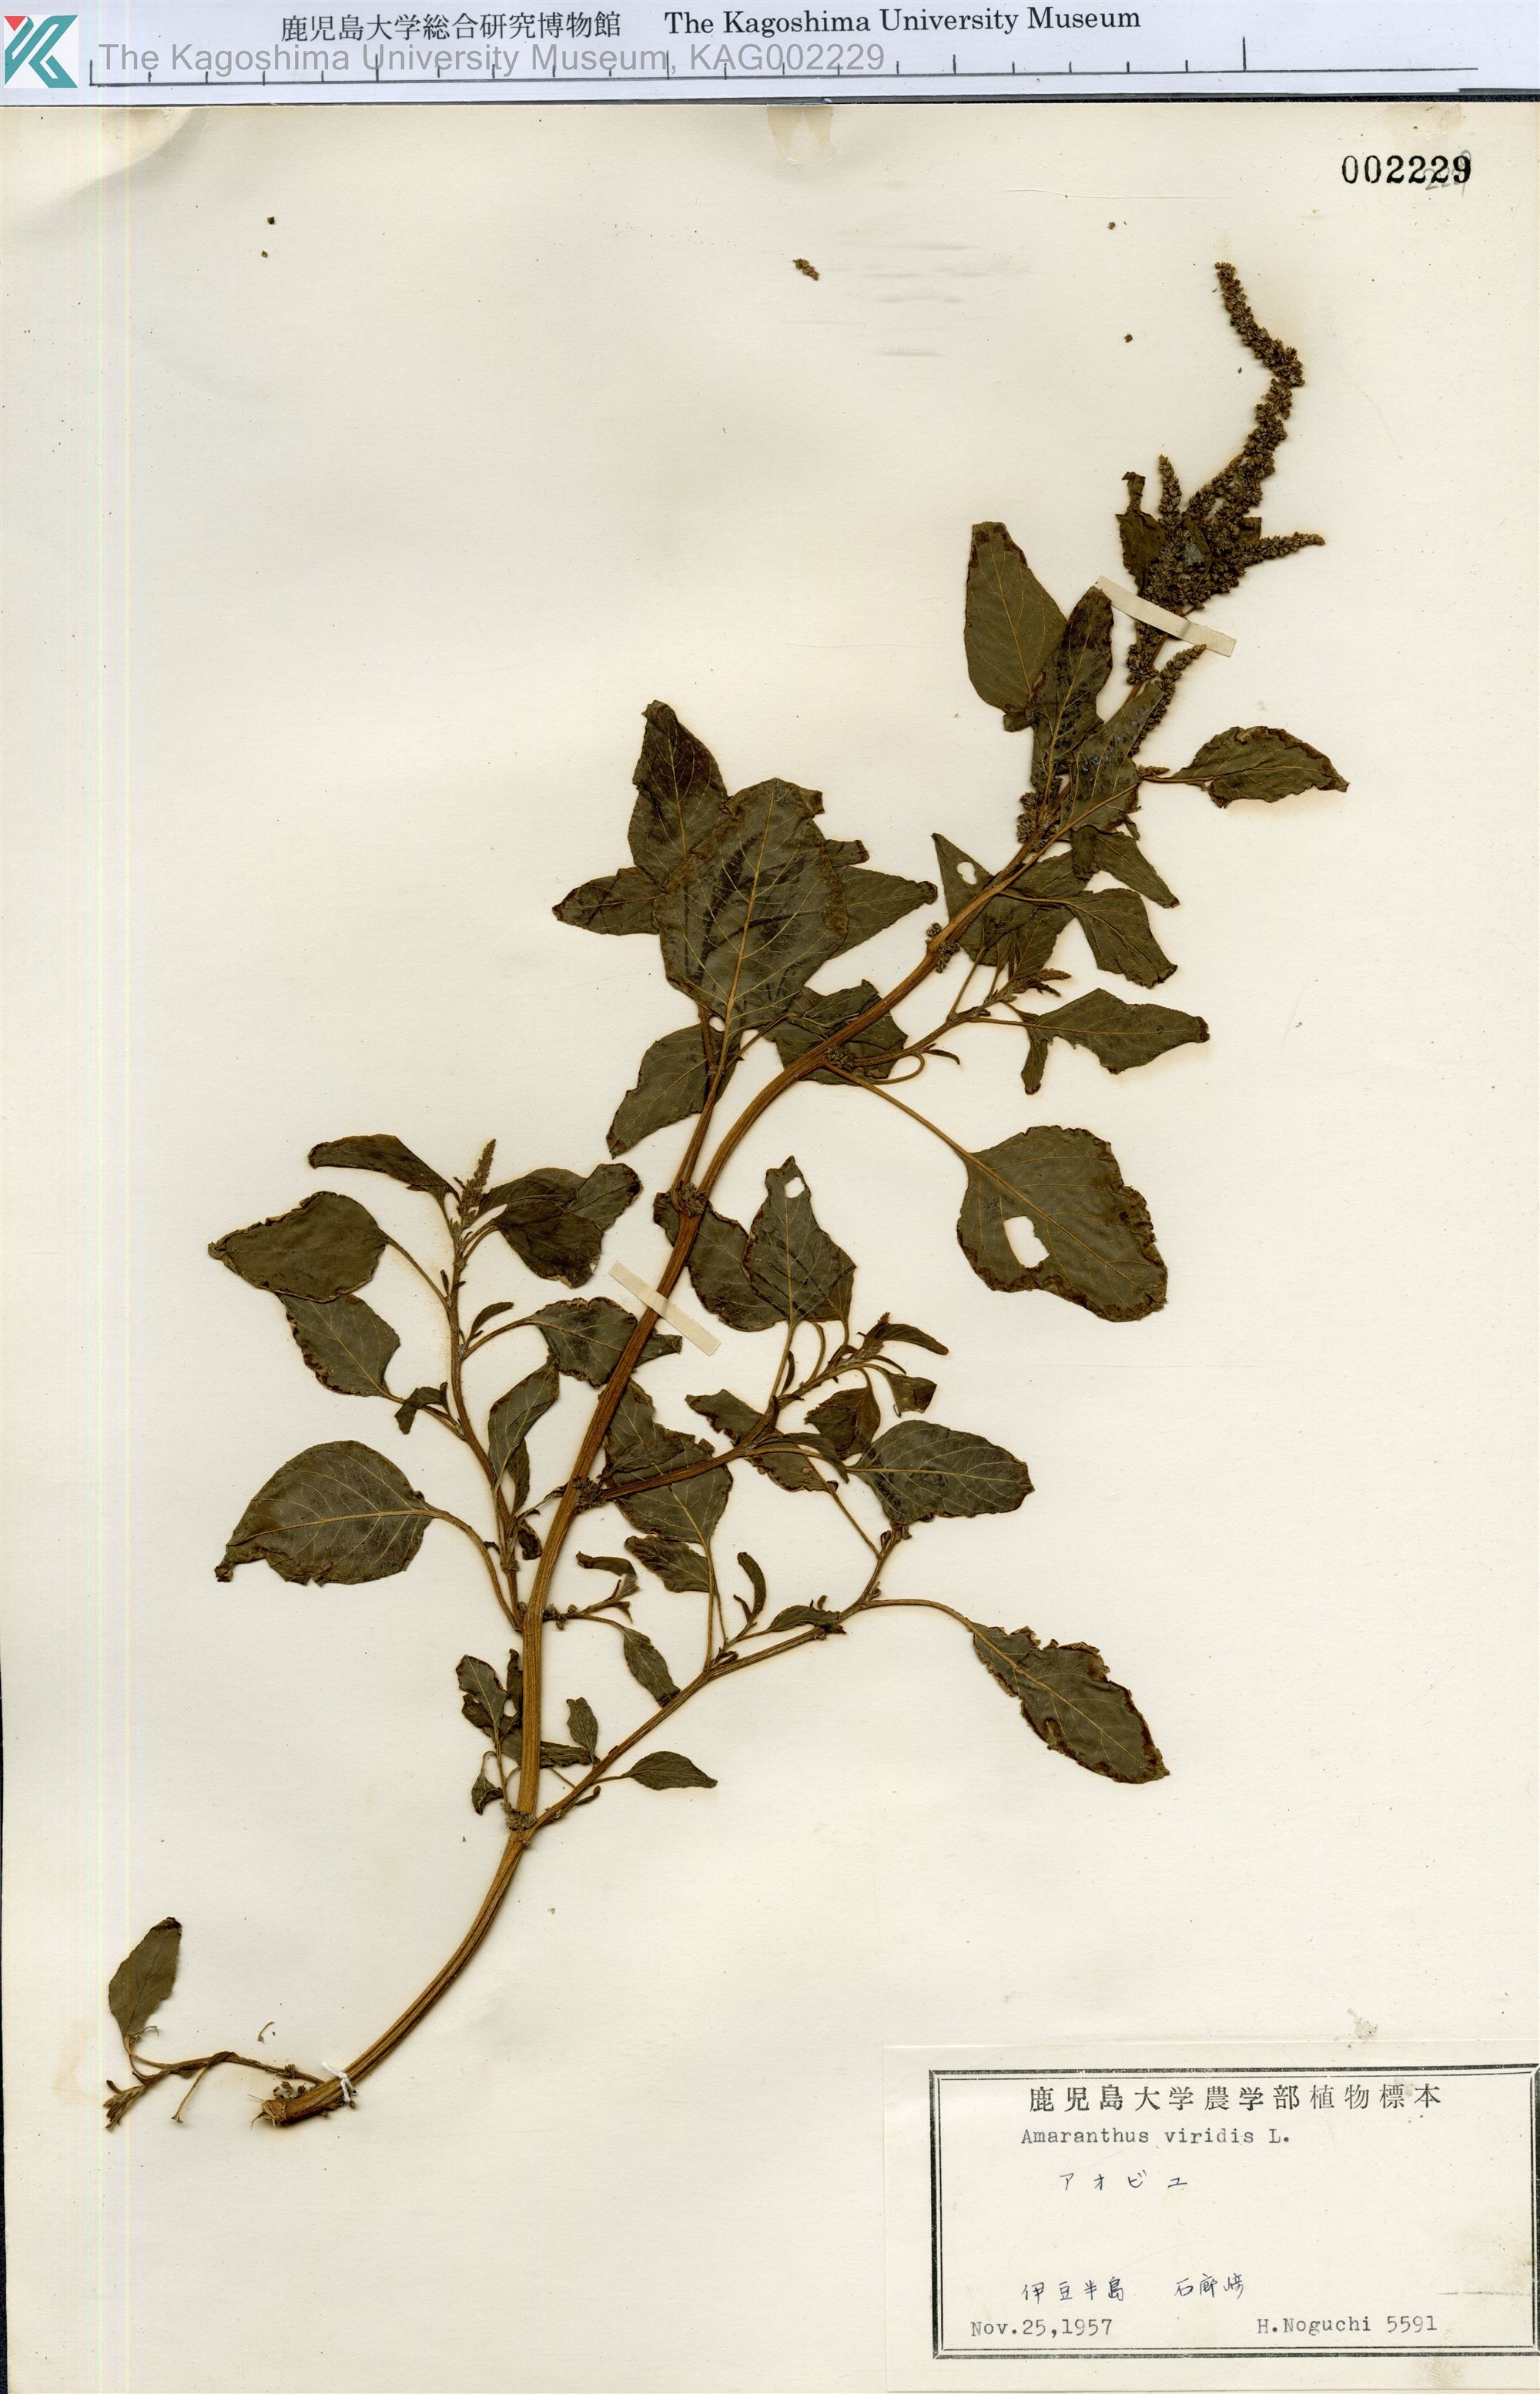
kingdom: Plantae
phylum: Tracheophyta
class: Magnoliopsida
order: Caryophyllales
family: Amaranthaceae
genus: Amaranthus
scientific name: Amaranthus viridis
